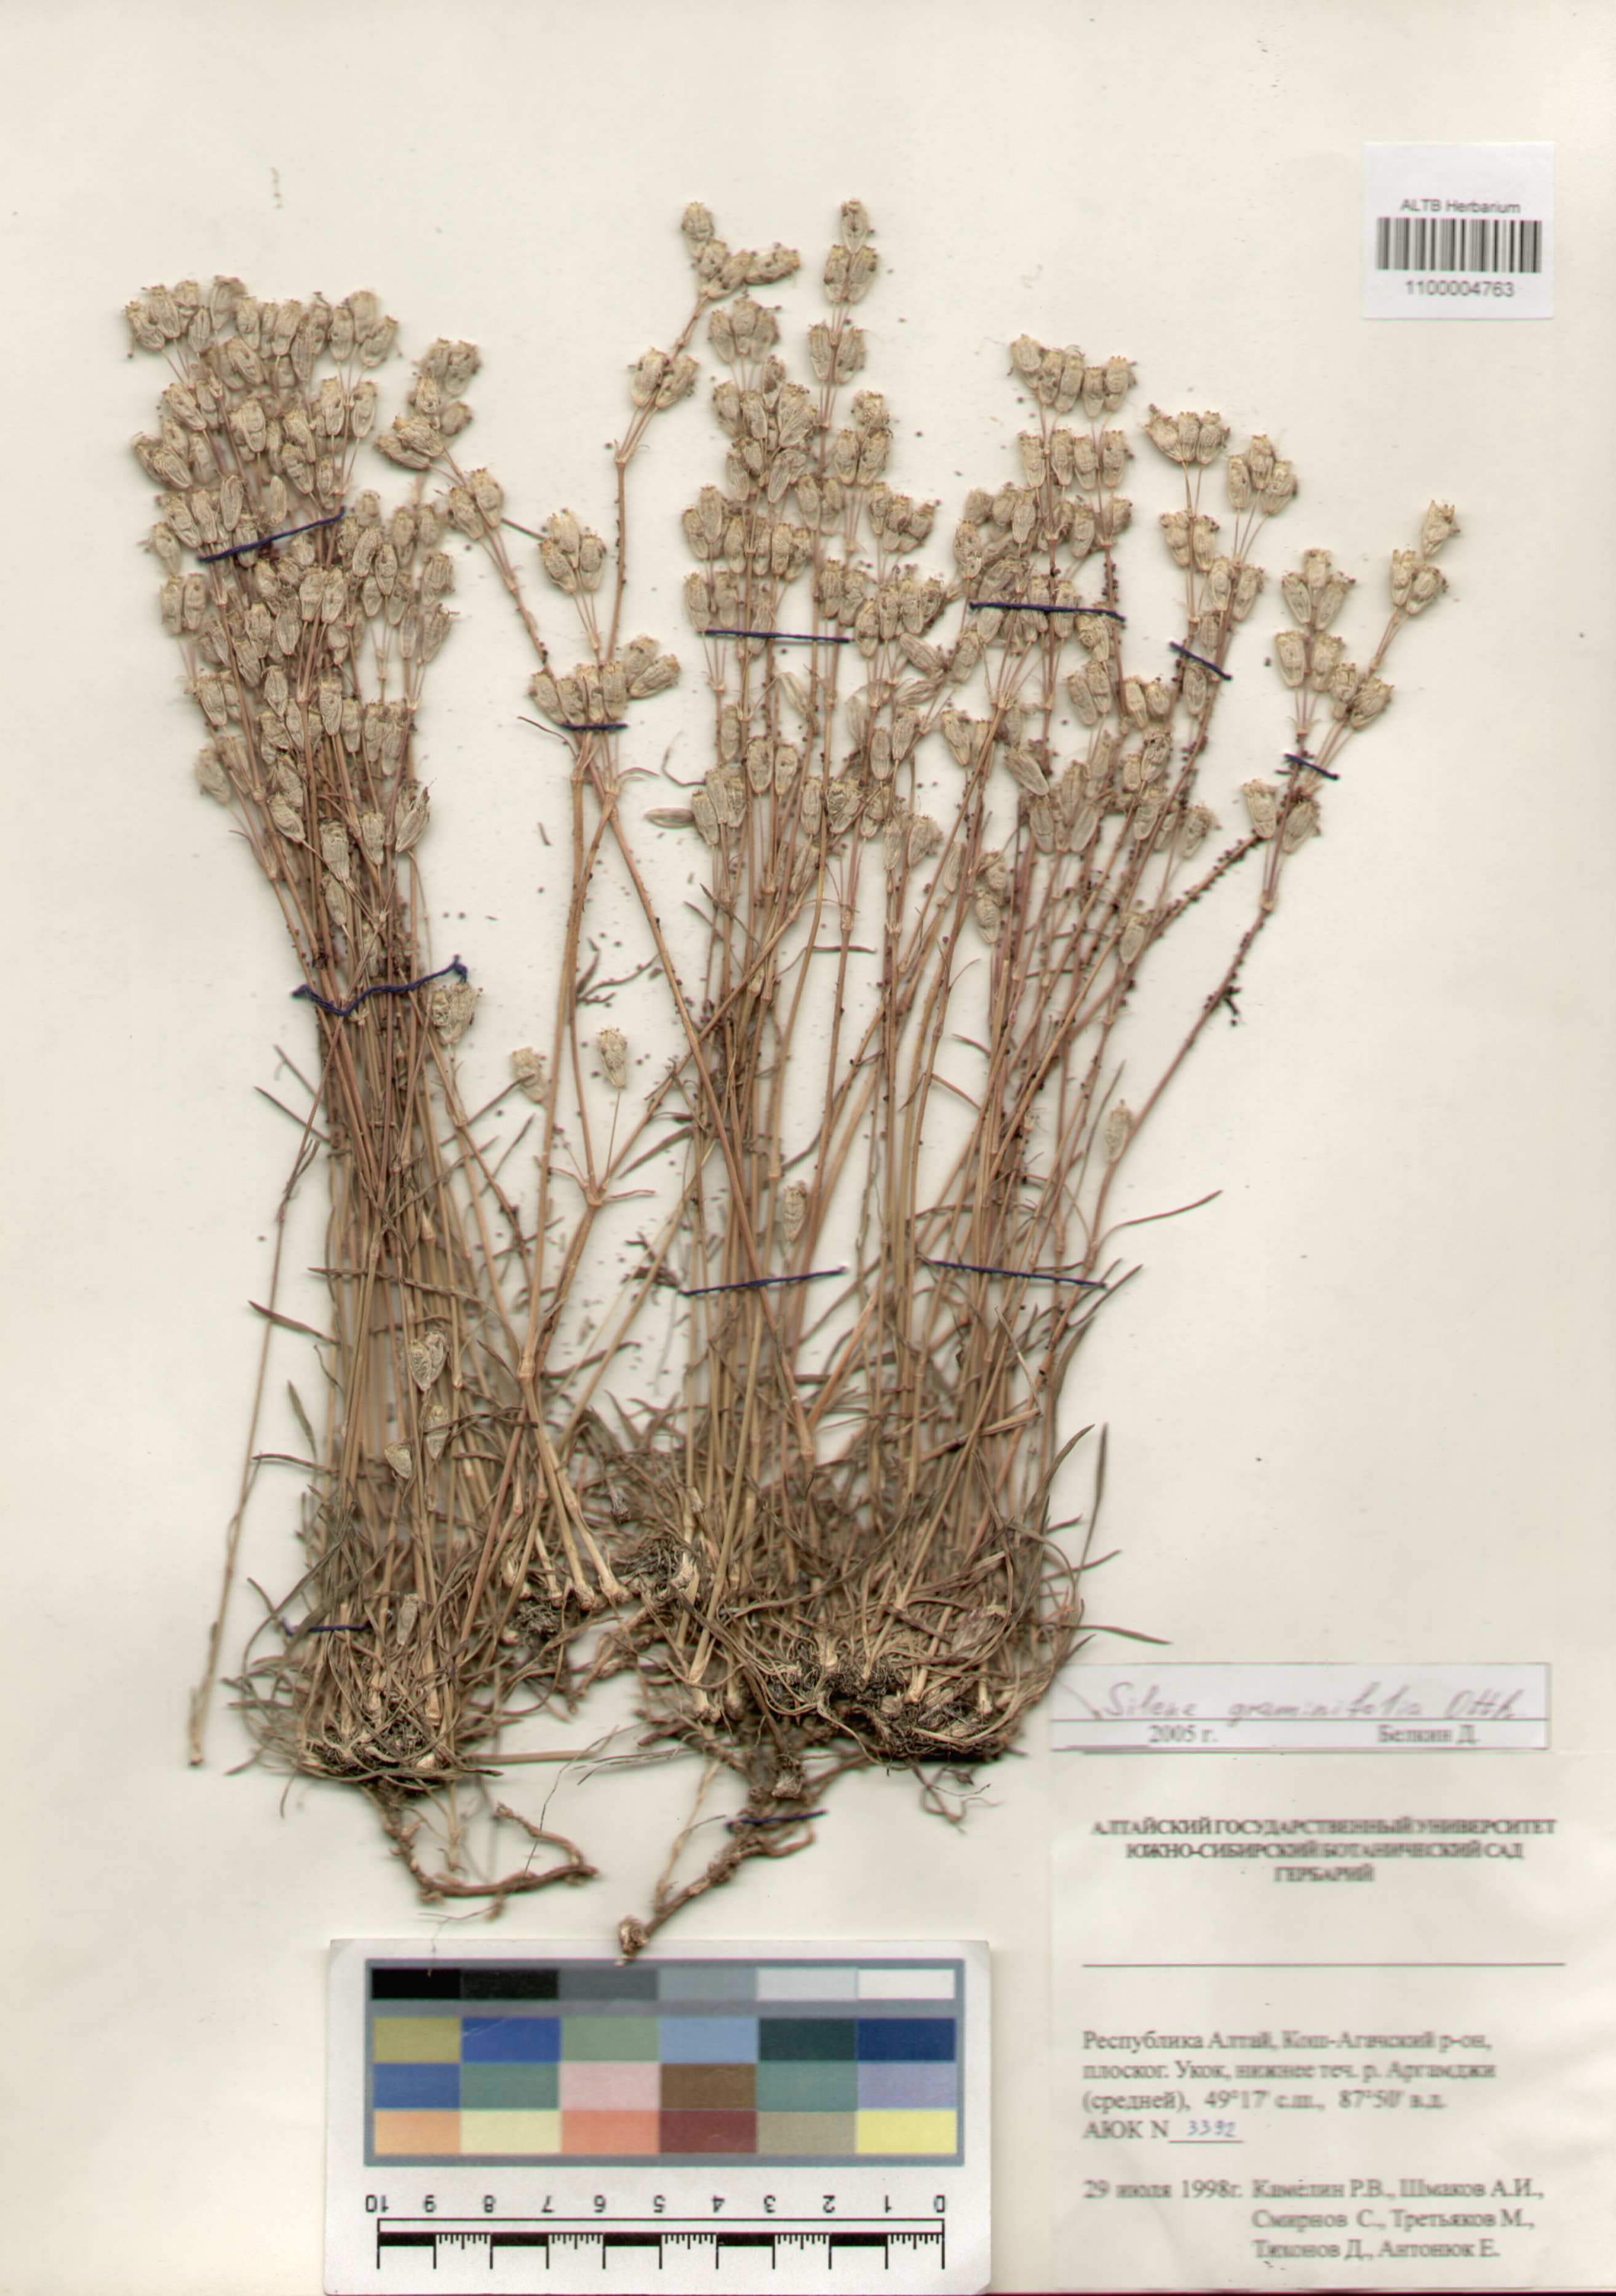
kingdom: Plantae
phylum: Tracheophyta
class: Magnoliopsida
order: Caryophyllales
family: Caryophyllaceae
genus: Silene
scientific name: Silene graminifolia
